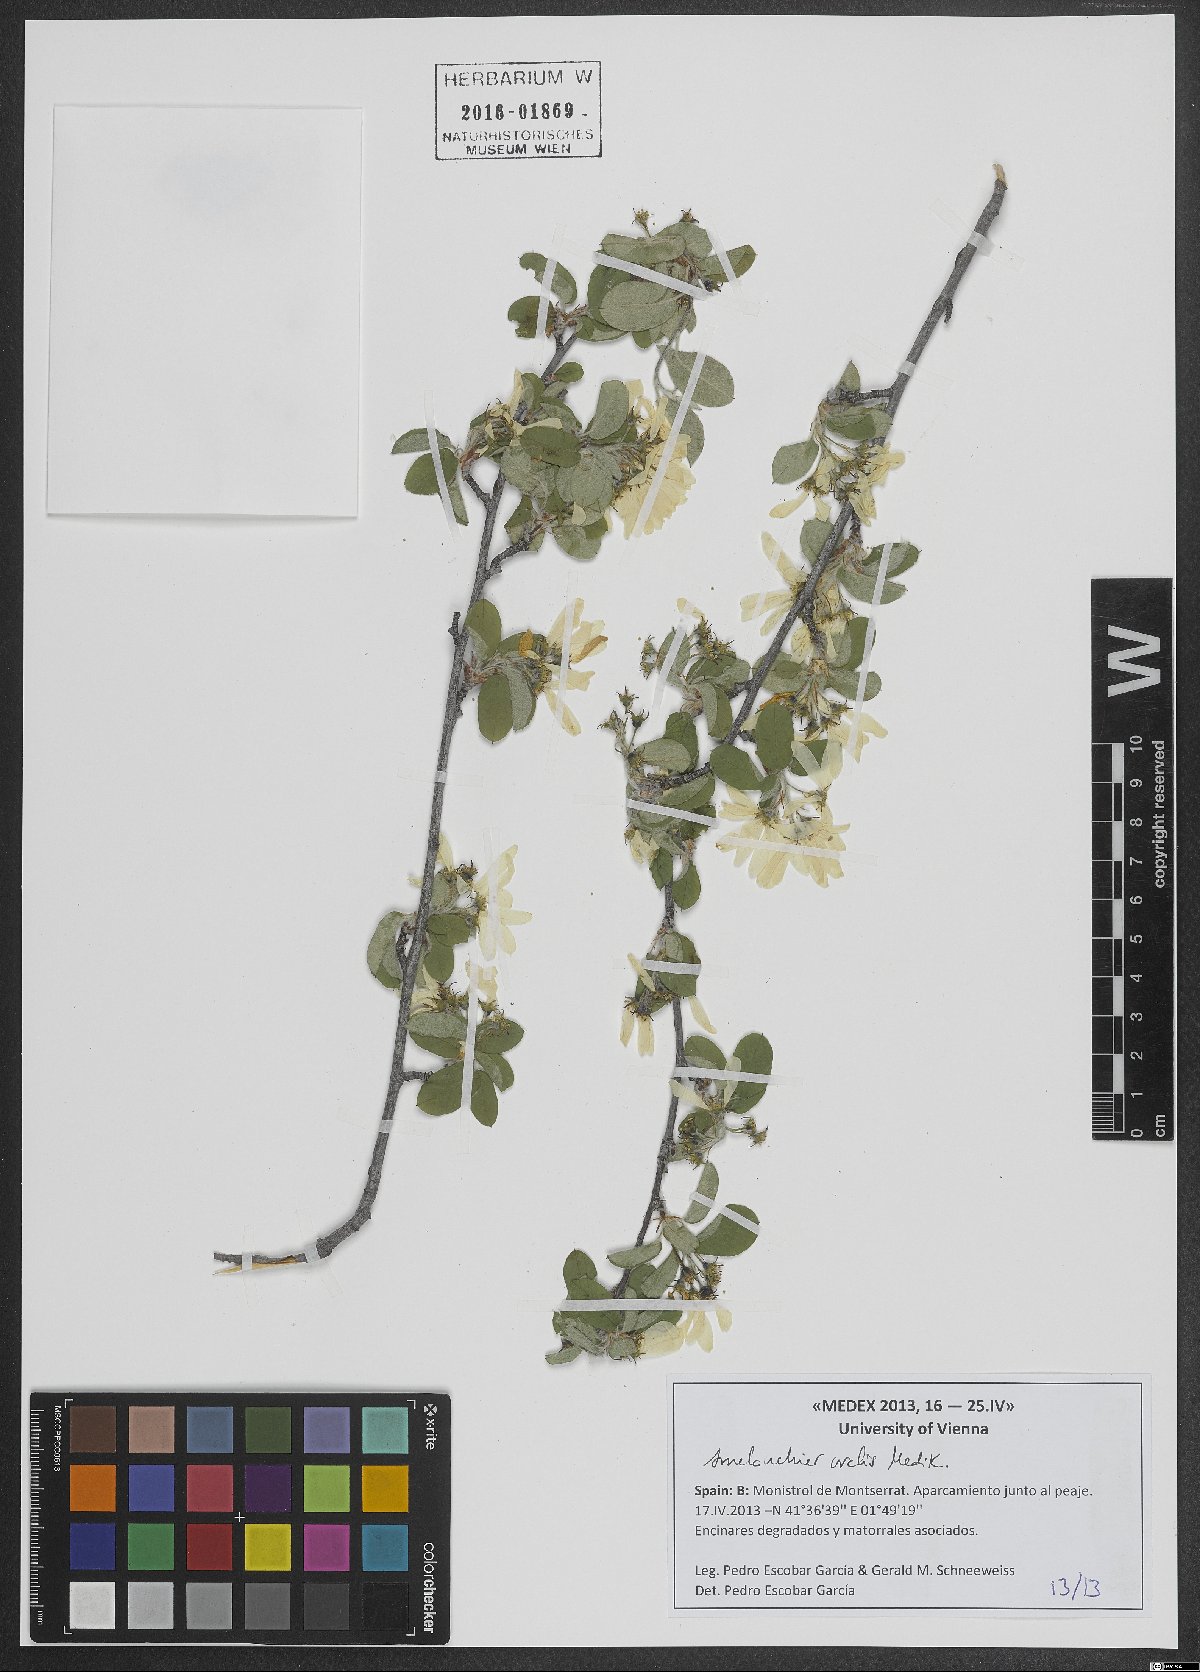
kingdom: Plantae
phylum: Tracheophyta
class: Magnoliopsida
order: Rosales
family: Rosaceae
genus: Amelanchier
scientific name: Amelanchier ovalis
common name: Serviceberry
